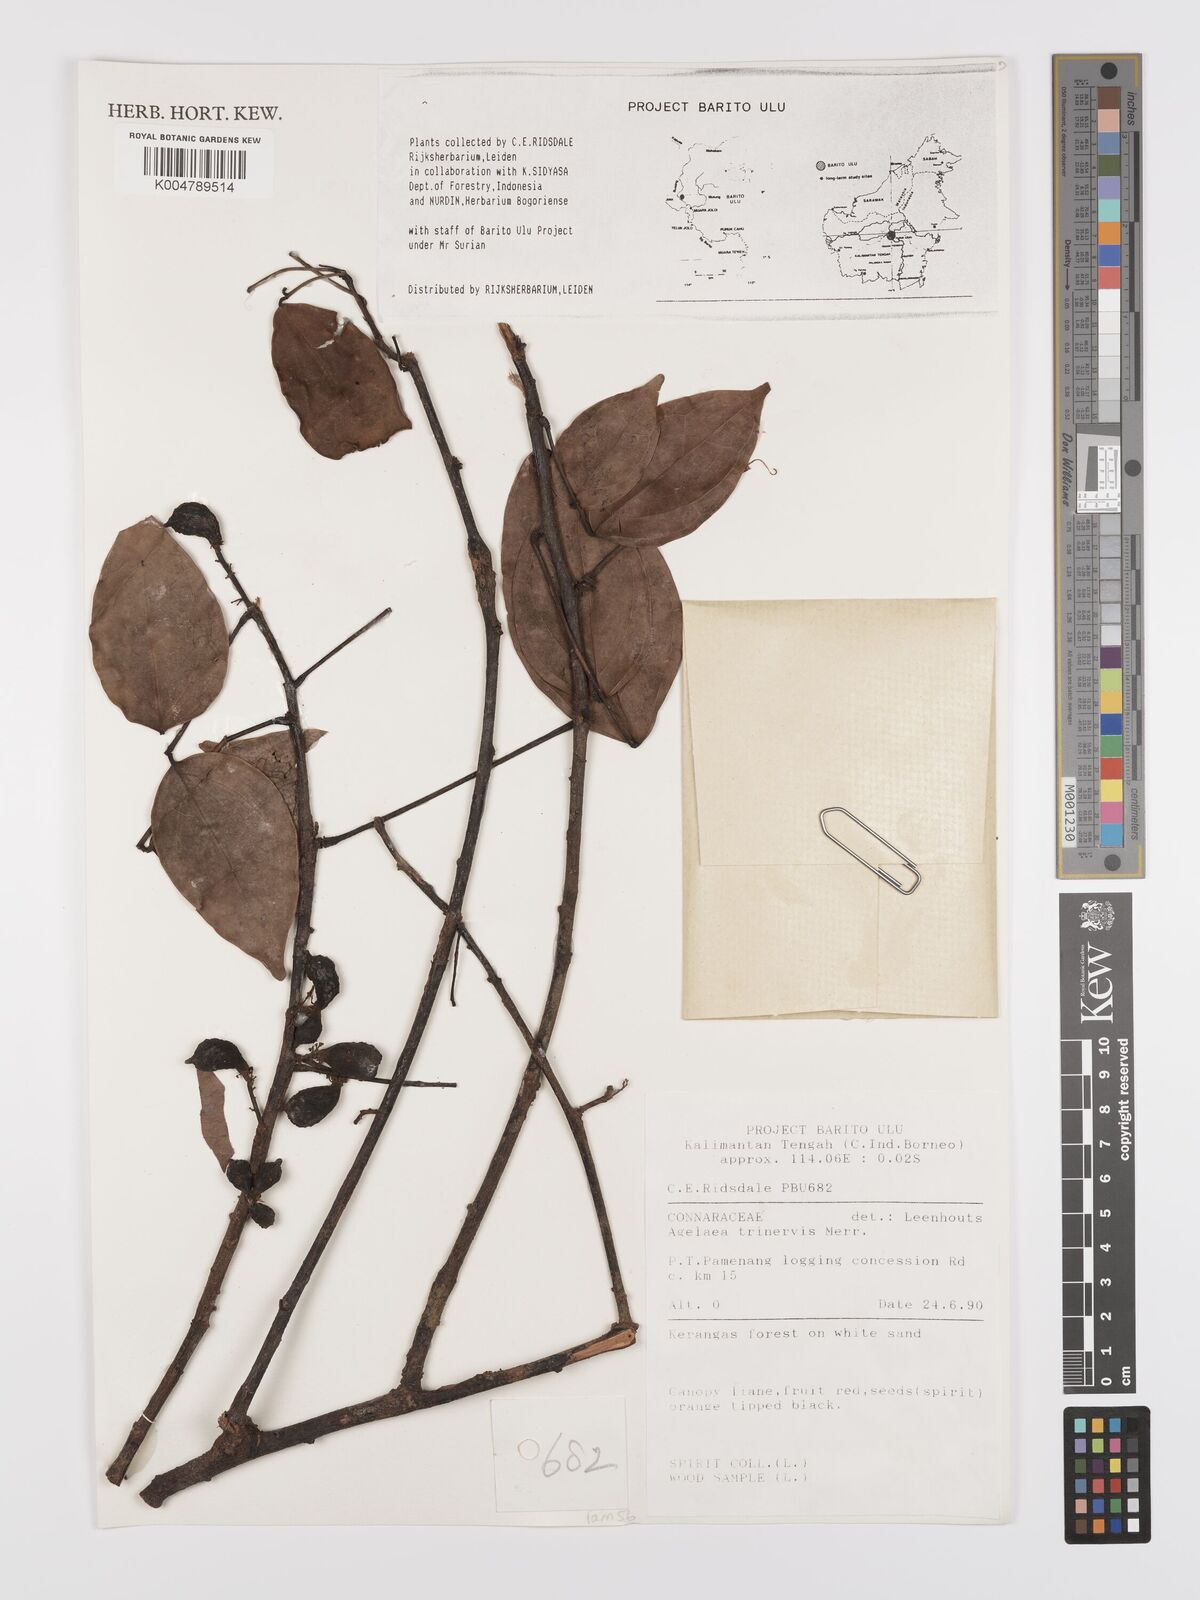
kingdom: Plantae
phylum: Tracheophyta
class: Magnoliopsida
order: Oxalidales
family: Connaraceae
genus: Agelaea
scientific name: Agelaea trinervis
